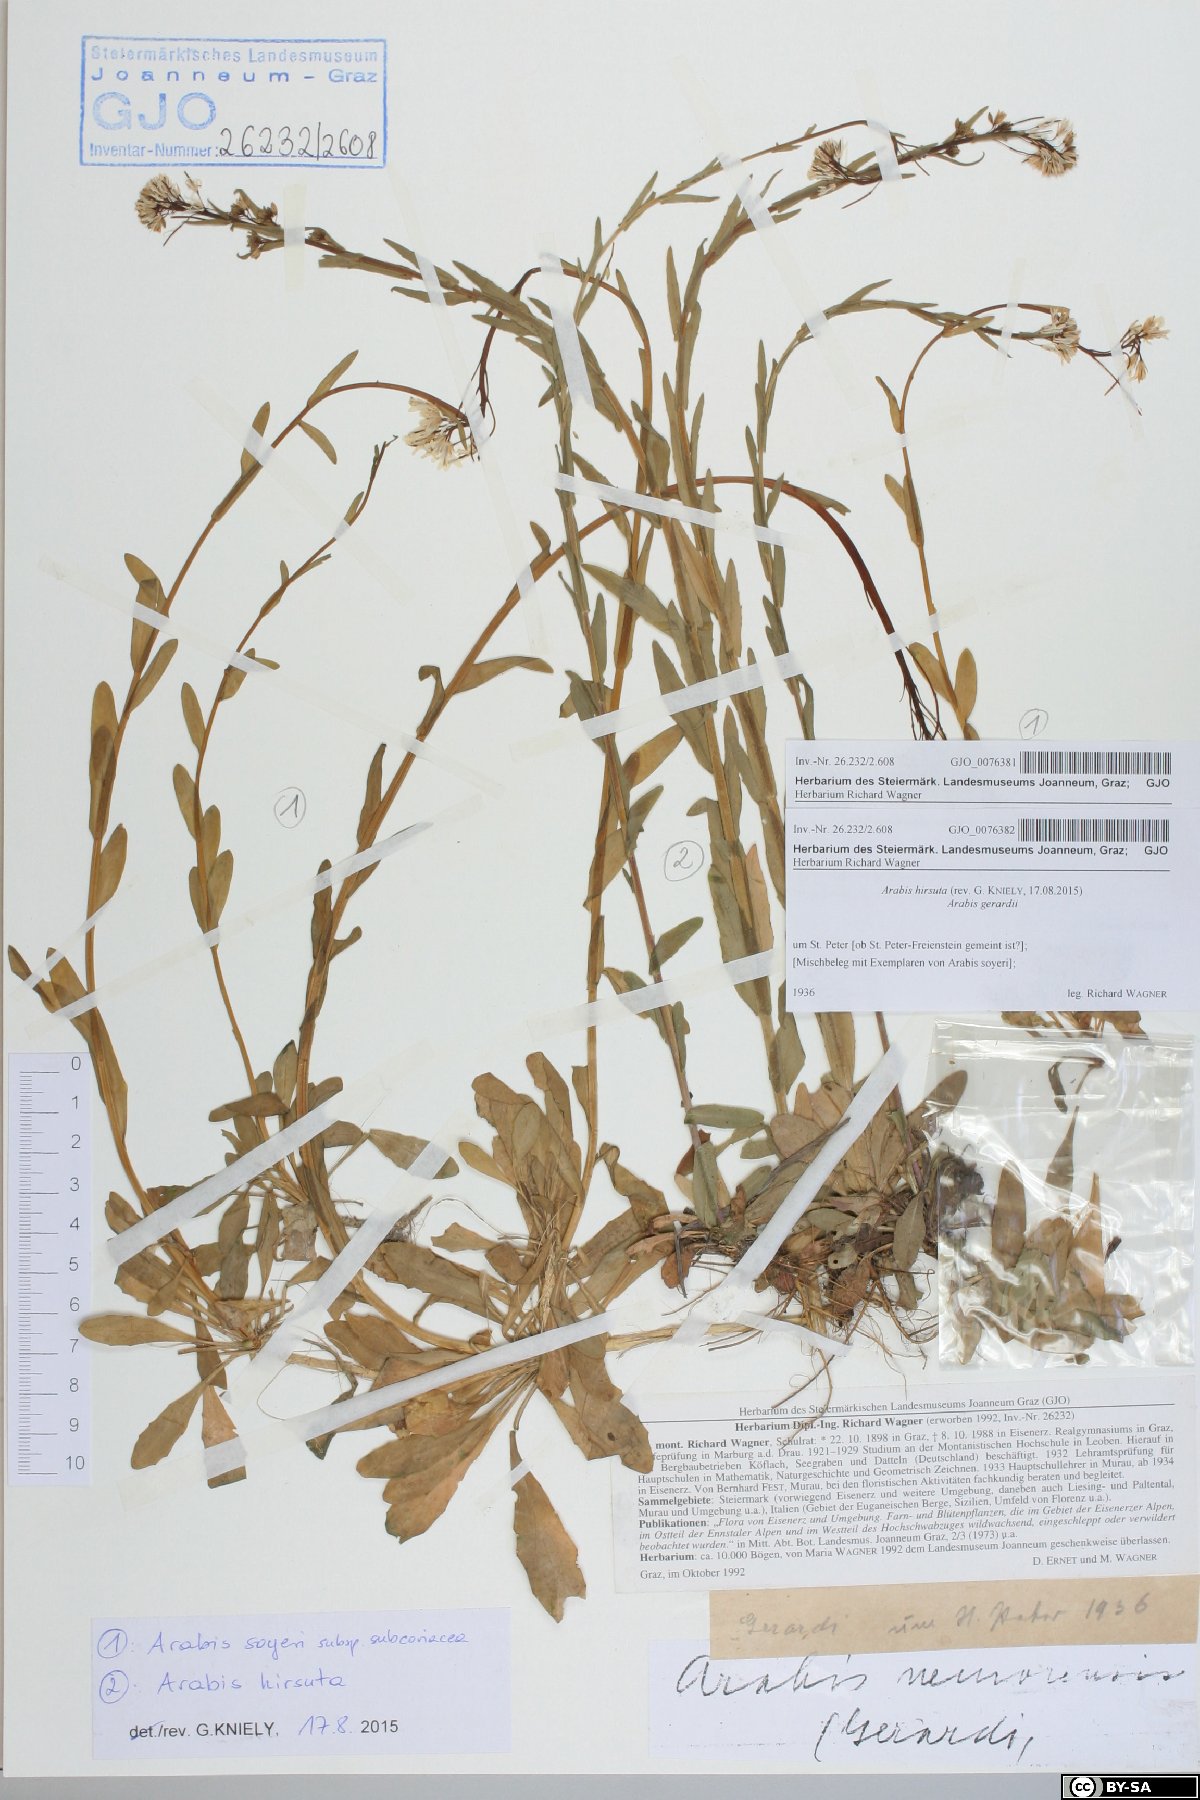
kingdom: Plantae
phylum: Tracheophyta
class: Magnoliopsida
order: Brassicales
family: Brassicaceae
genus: Arabis
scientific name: Arabis hirsuta
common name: Hairy rock-cress
